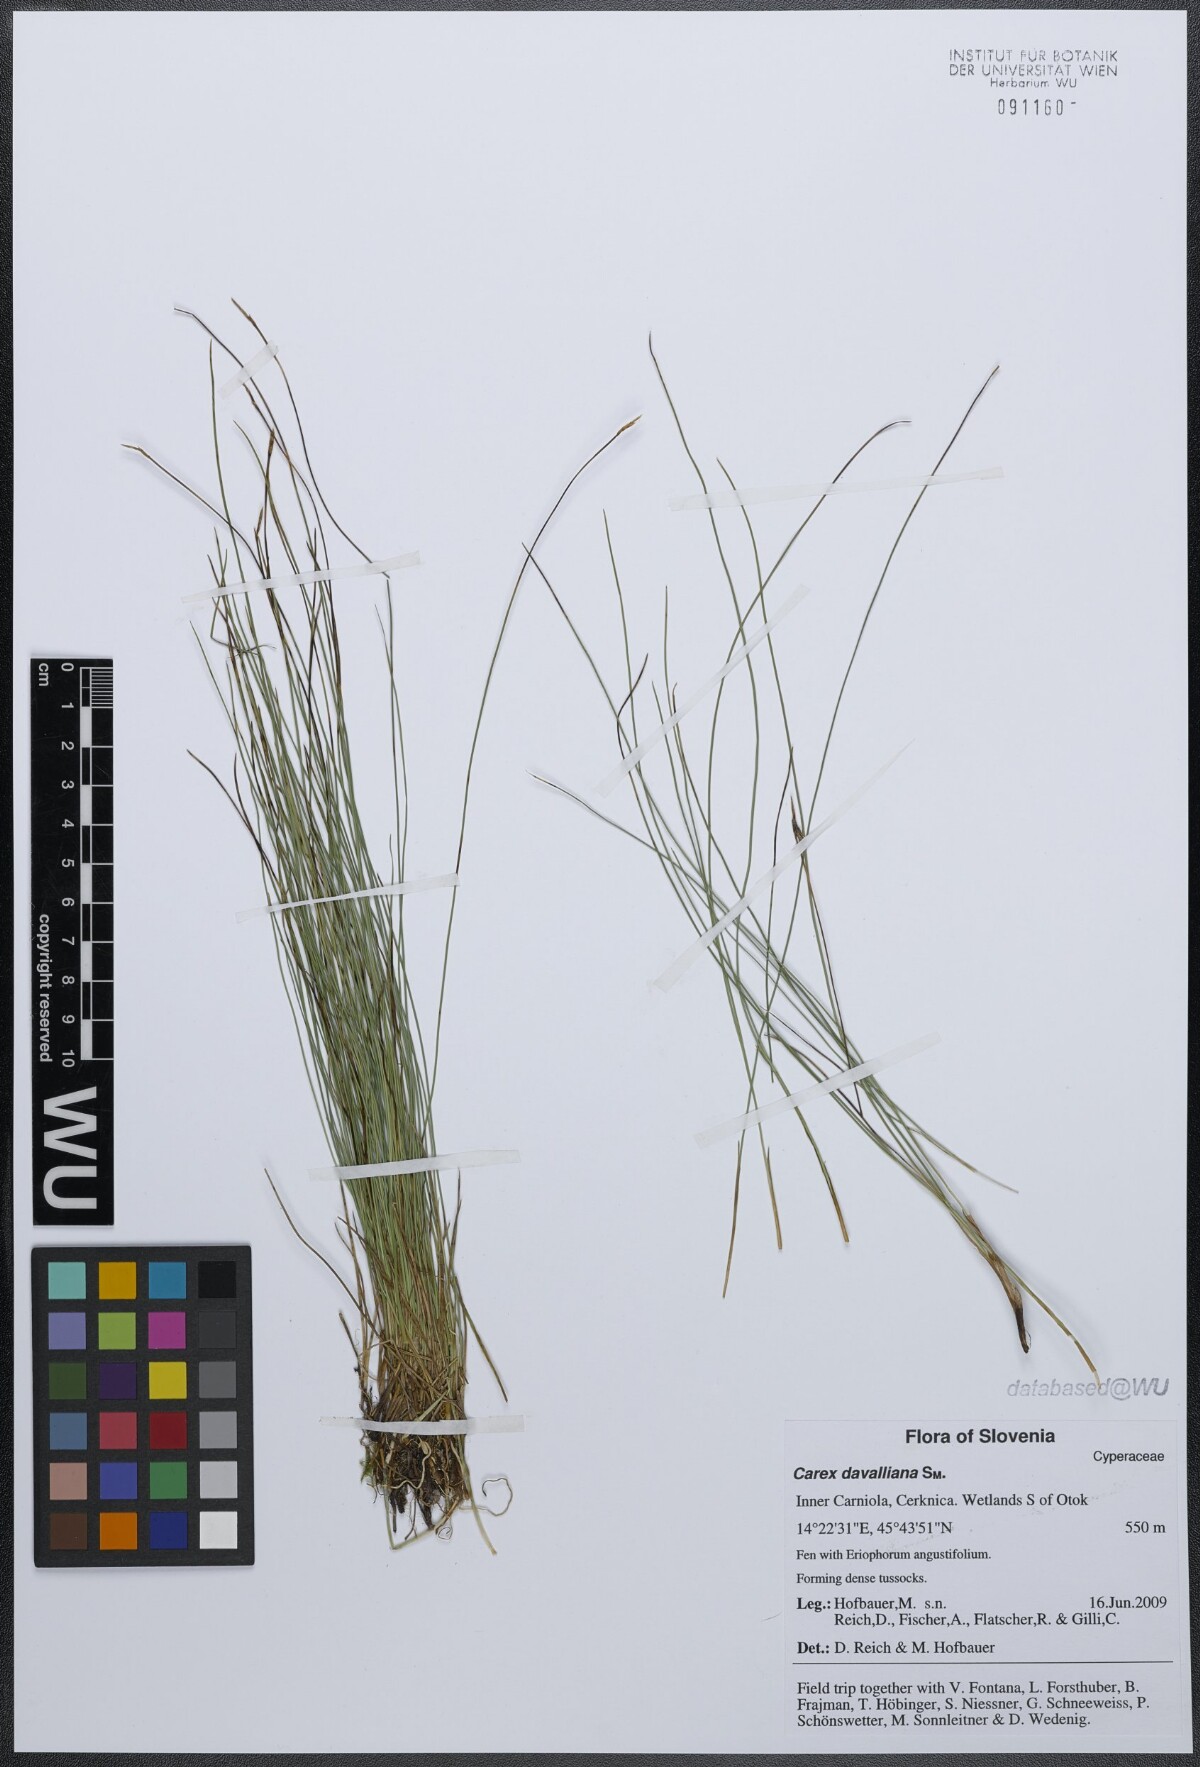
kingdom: Plantae
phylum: Tracheophyta
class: Liliopsida
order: Poales
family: Cyperaceae
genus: Carex
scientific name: Carex davalliana
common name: Davall's sedge
